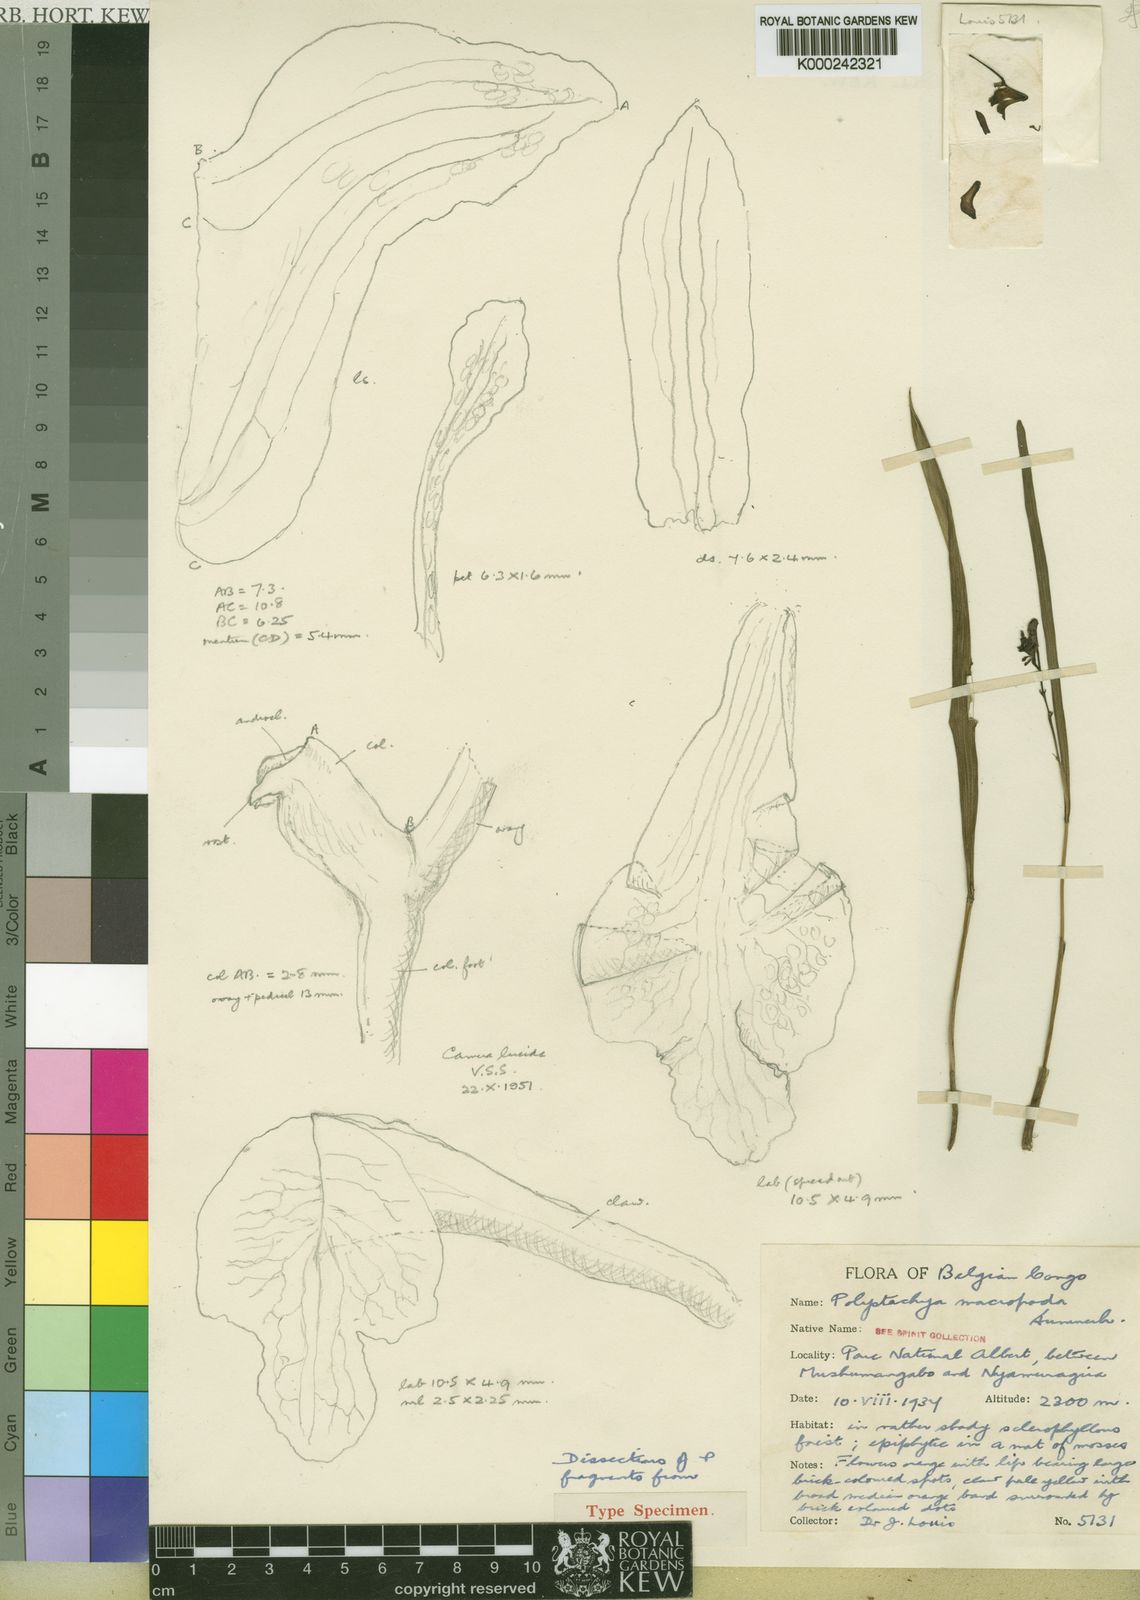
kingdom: Plantae
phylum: Tracheophyta
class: Liliopsida
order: Asparagales
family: Orchidaceae
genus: Polystachya
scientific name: Polystachya macropoda
